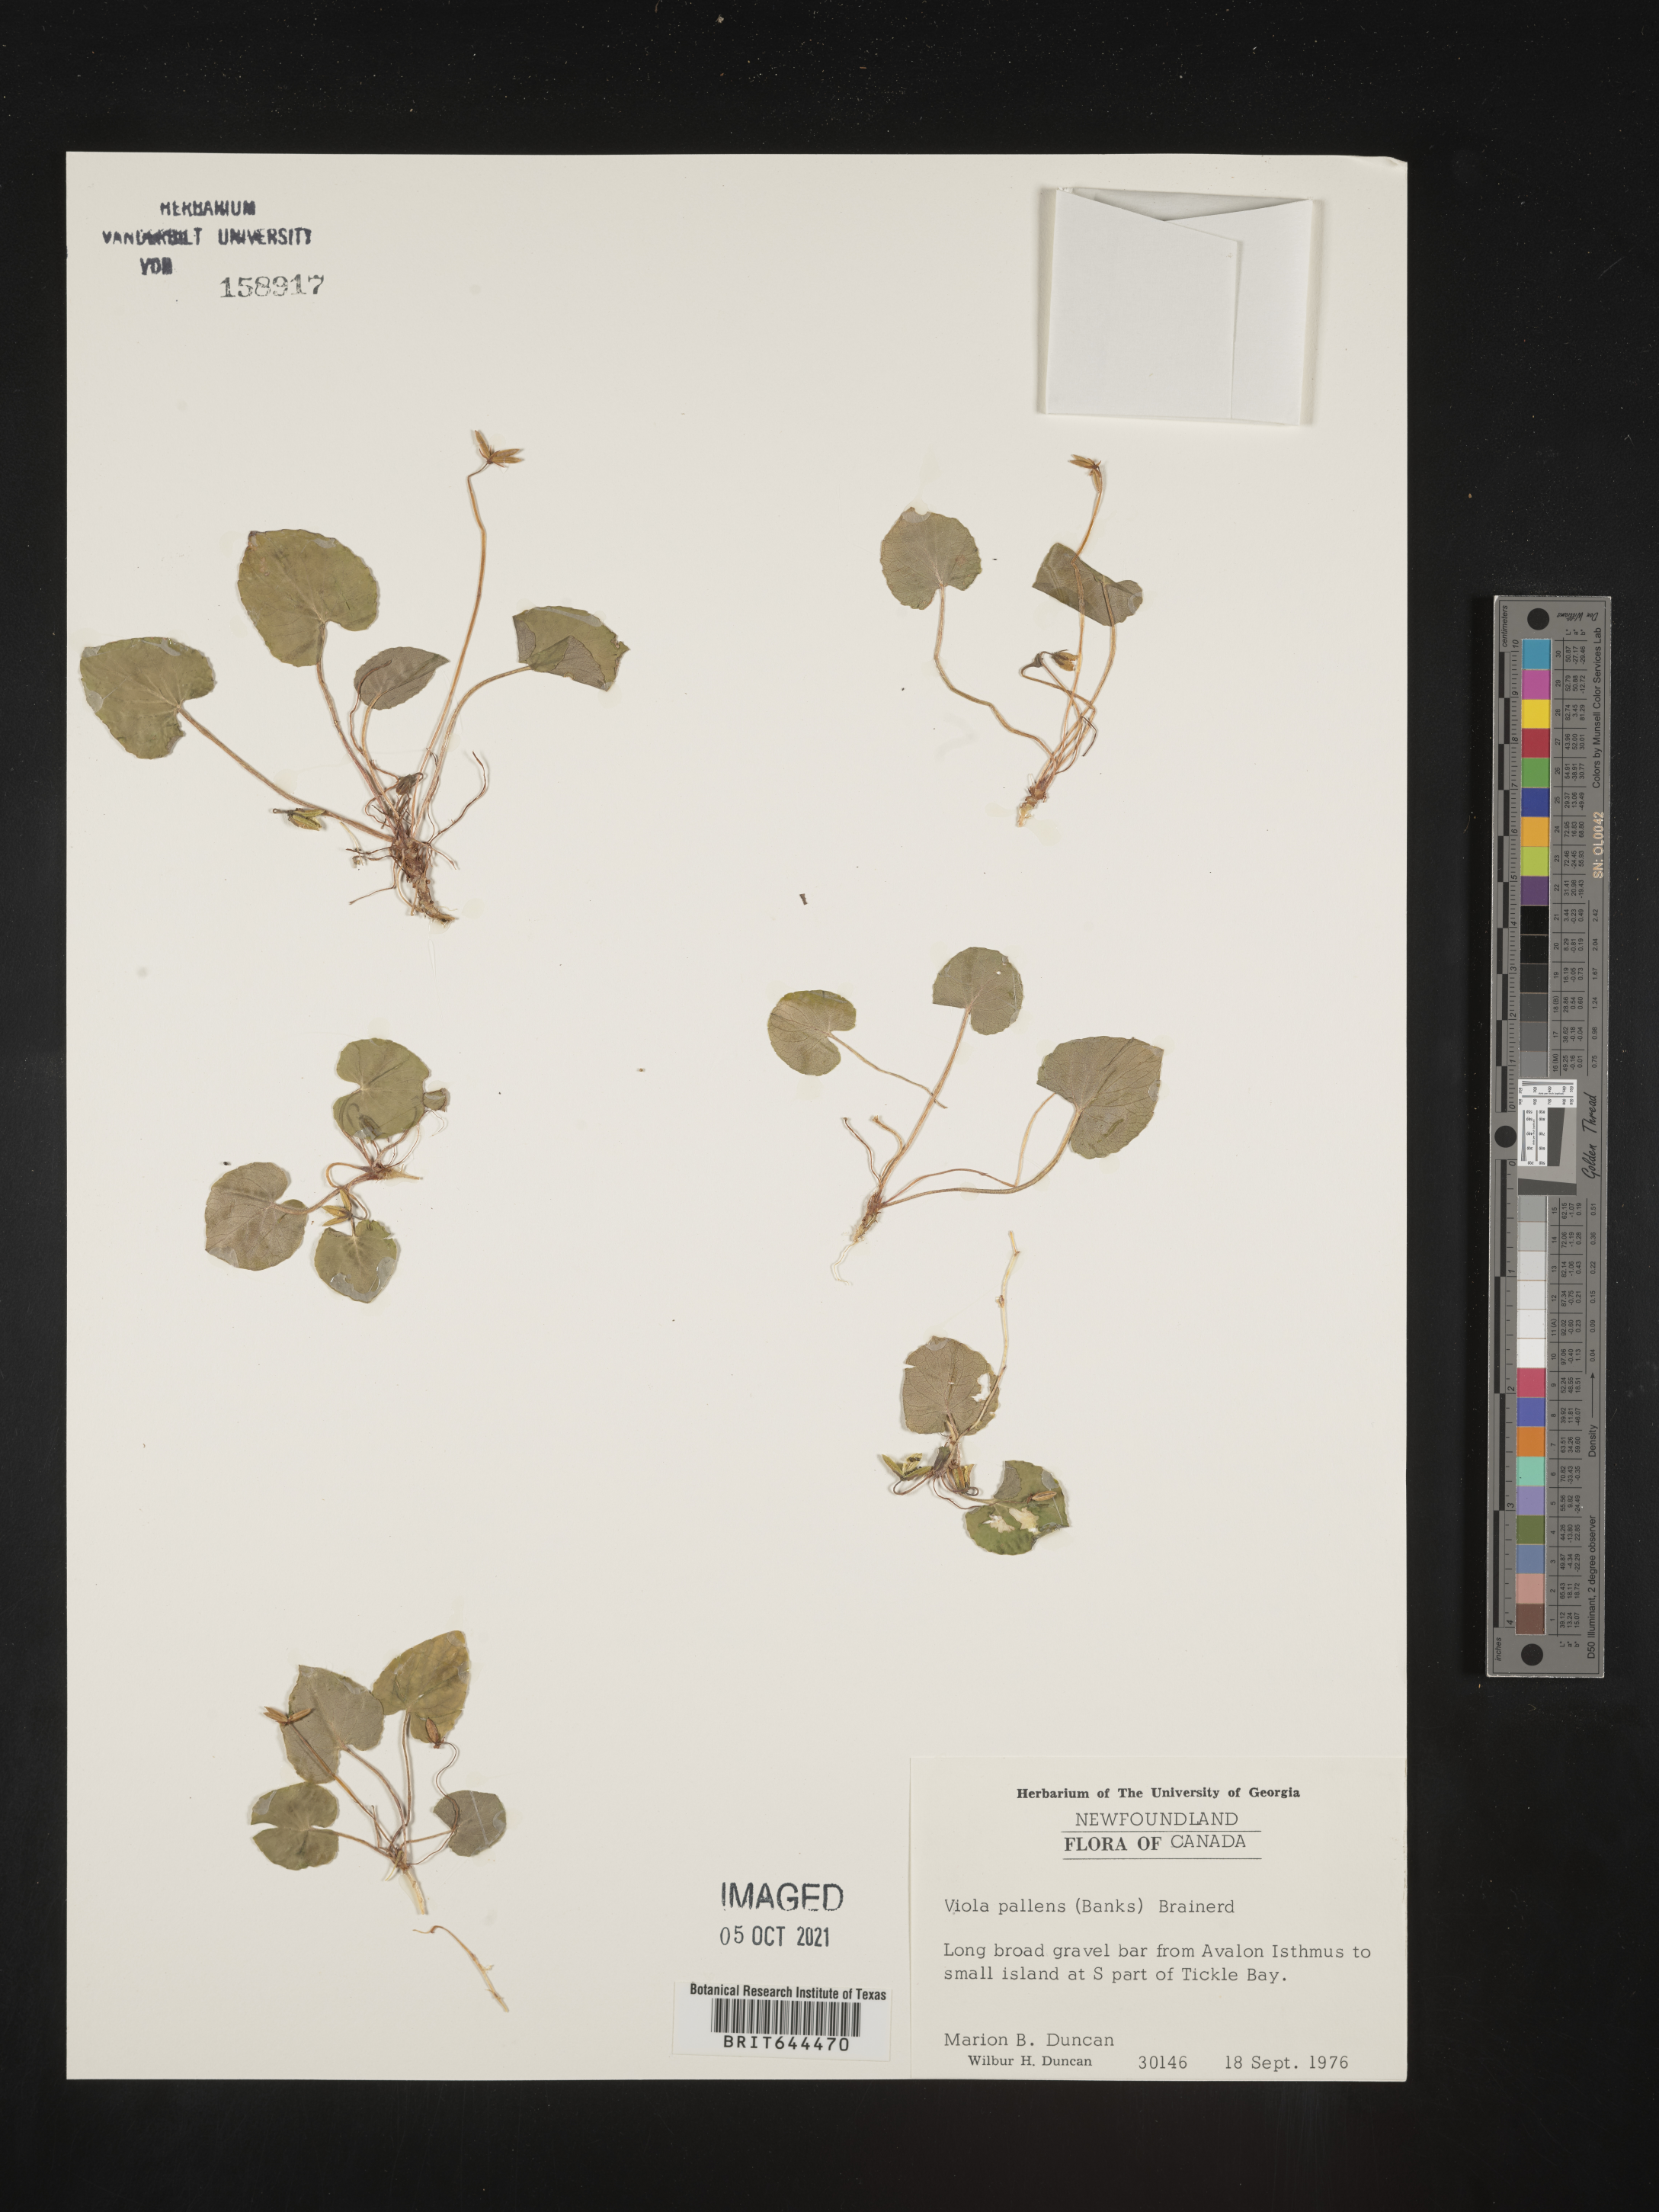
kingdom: Plantae
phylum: Tracheophyta
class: Magnoliopsida
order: Malpighiales
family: Violaceae
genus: Viola
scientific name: Viola
